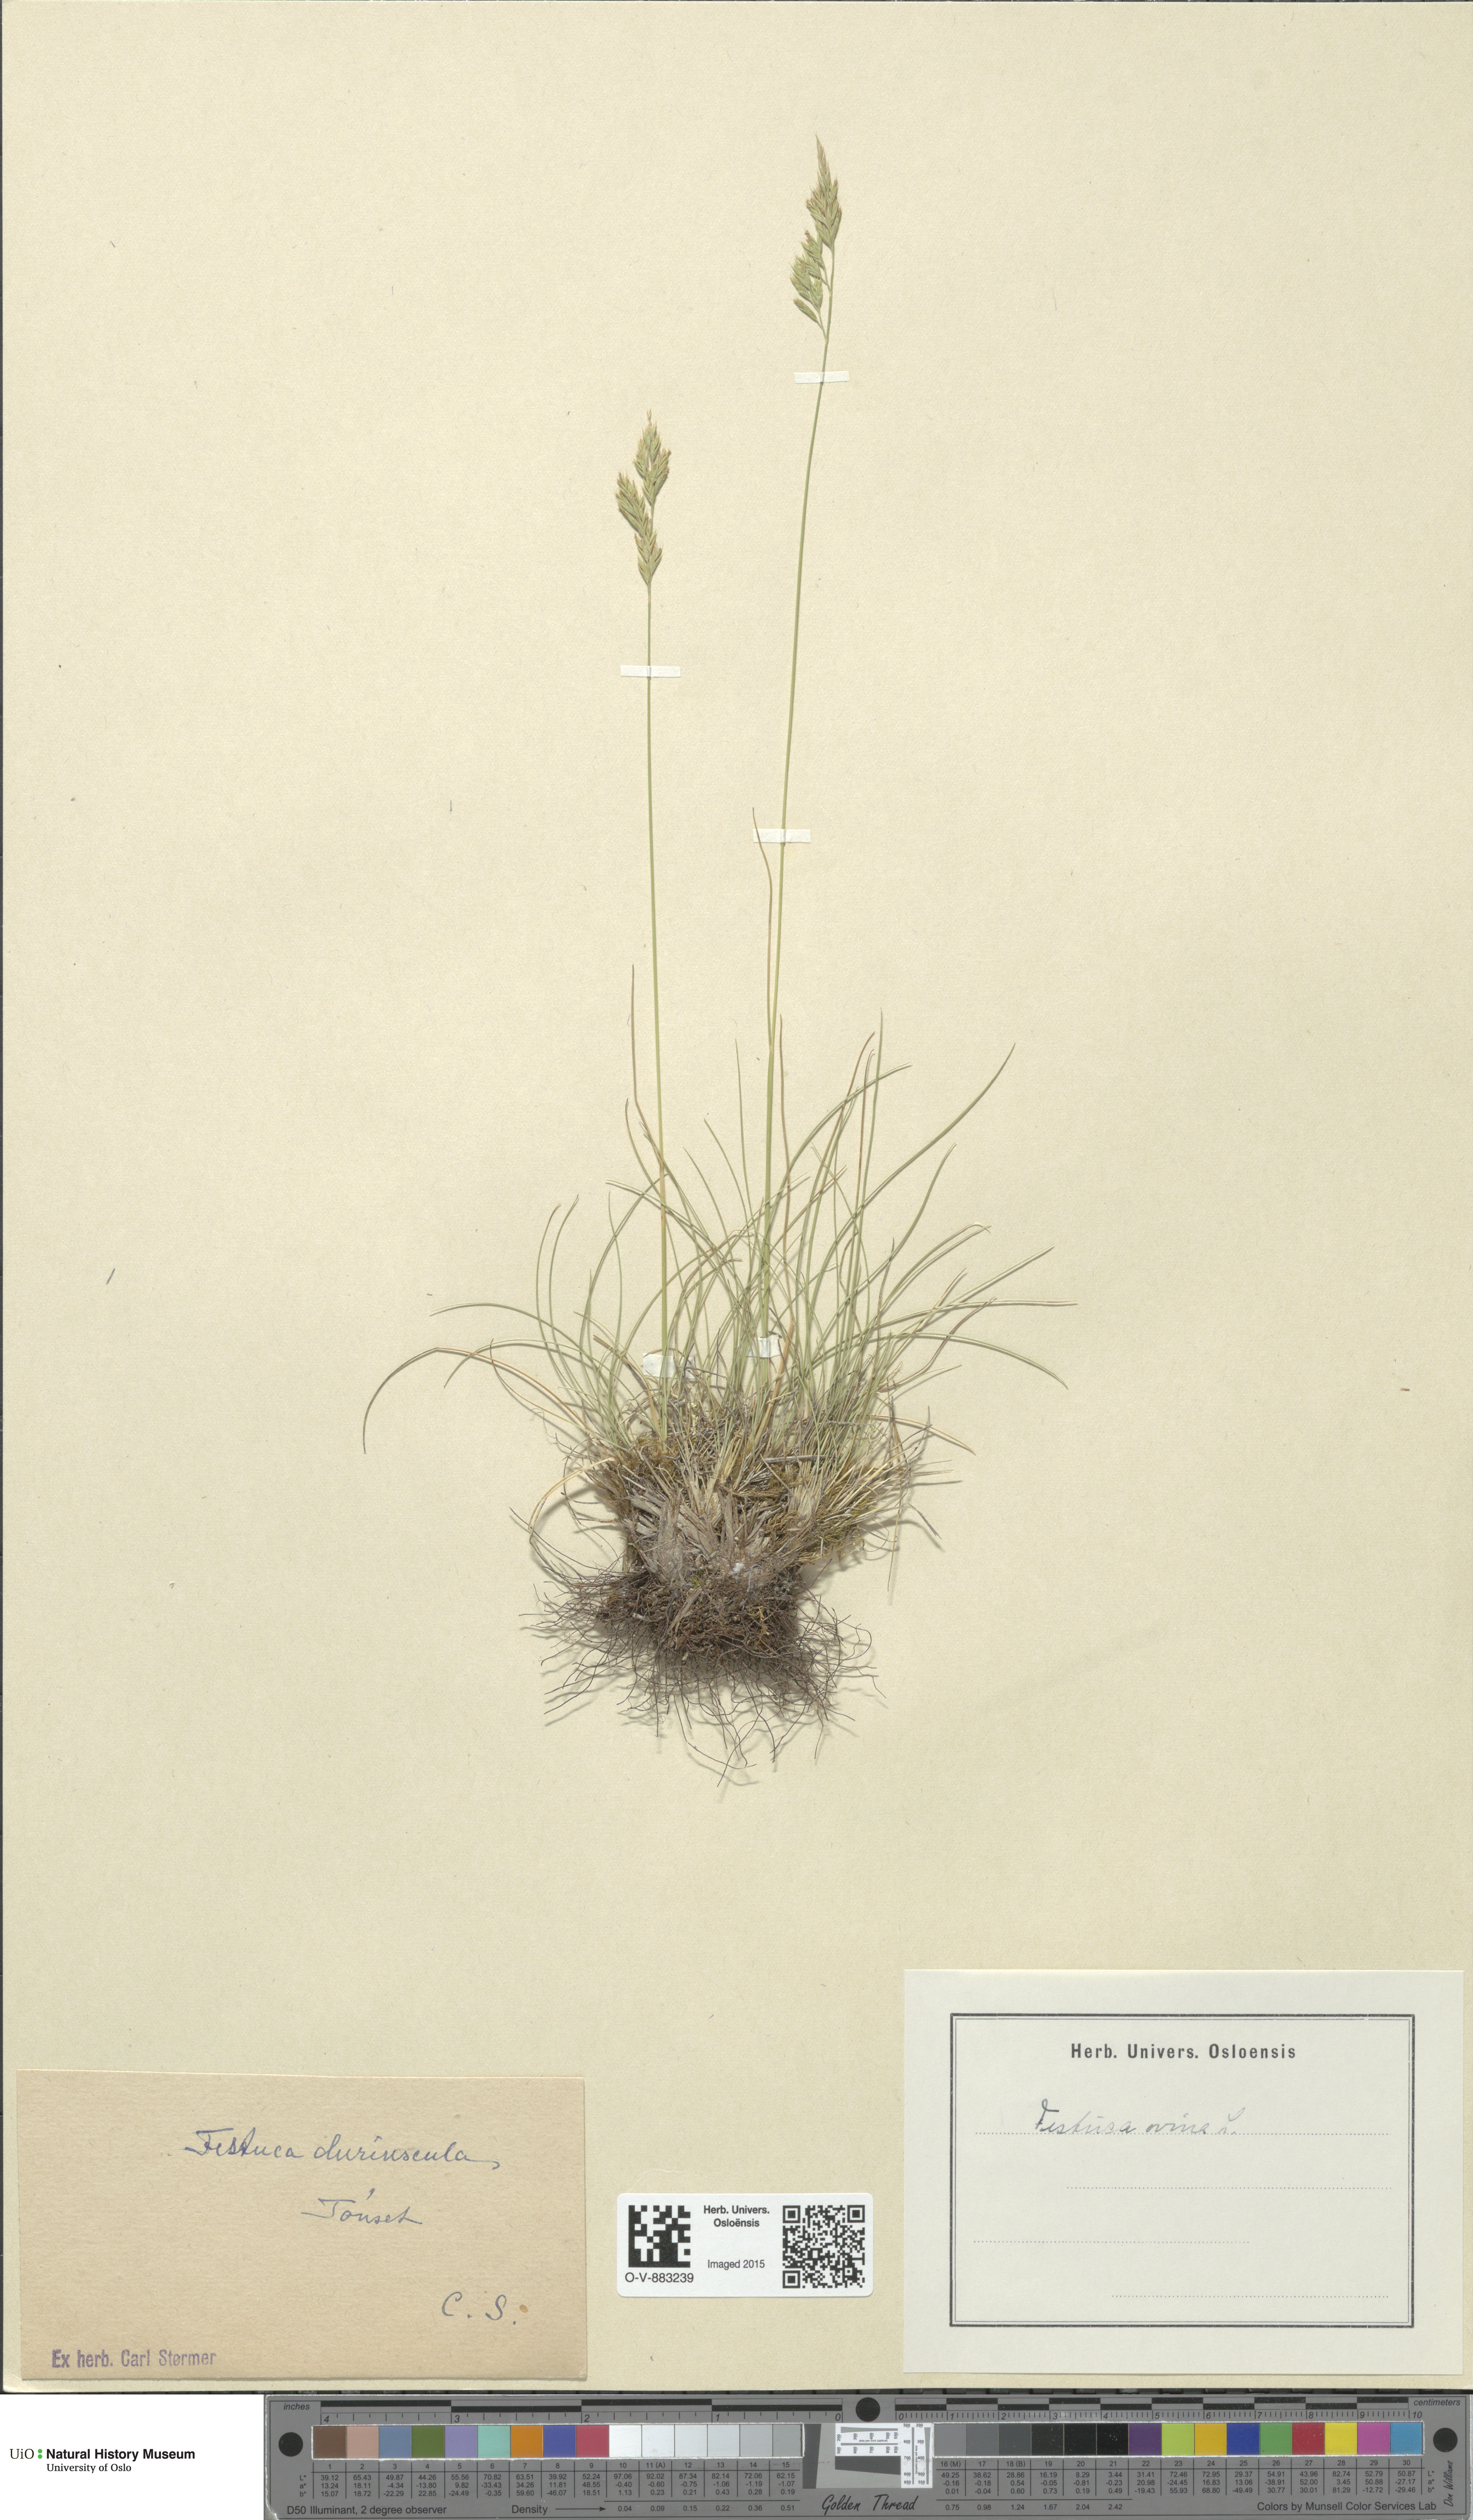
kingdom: Plantae
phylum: Tracheophyta
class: Liliopsida
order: Poales
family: Poaceae
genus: Festuca
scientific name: Festuca ovina
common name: Sheep fescue
